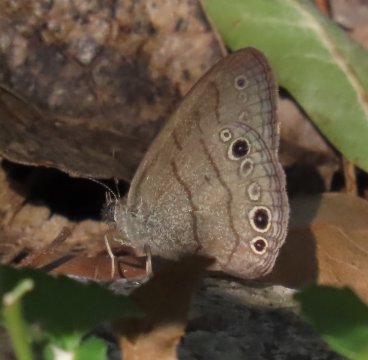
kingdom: Animalia
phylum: Arthropoda
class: Insecta
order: Lepidoptera
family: Nymphalidae
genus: Hermeuptychia
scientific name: Hermeuptychia intricata
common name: Intricate Satyr
